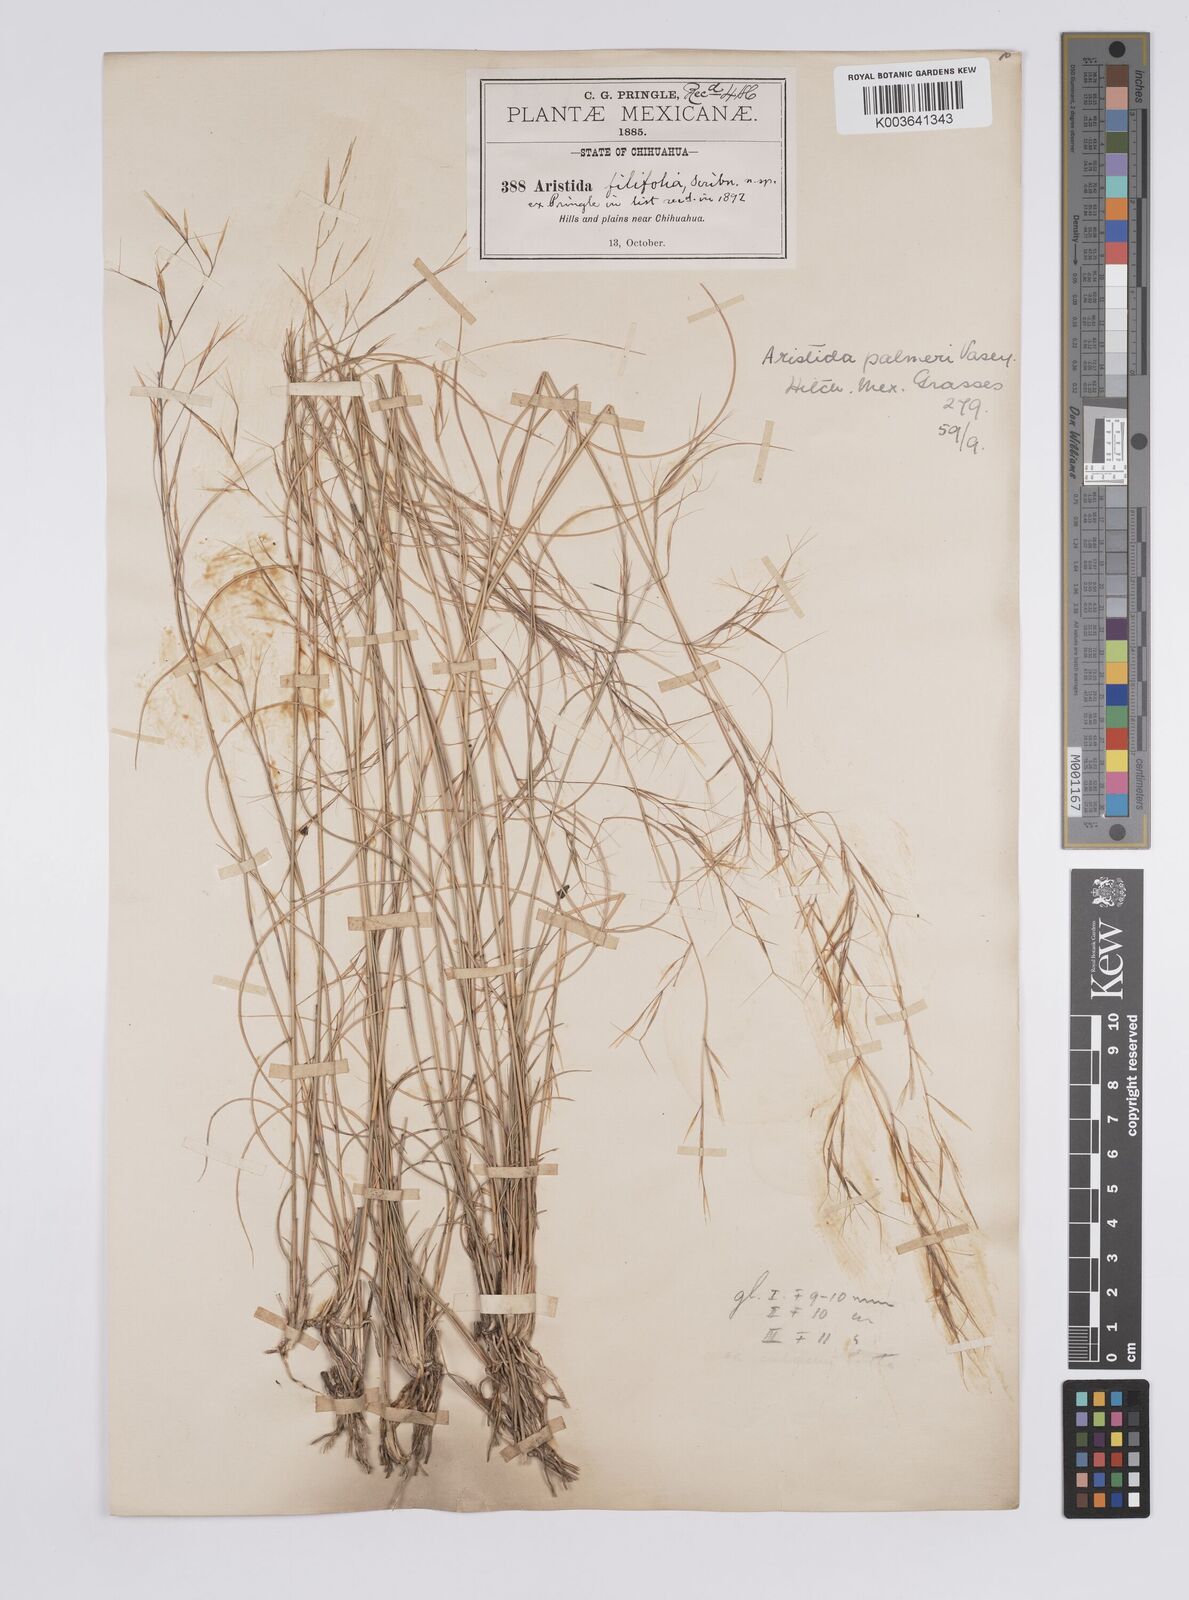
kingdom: Plantae
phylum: Tracheophyta
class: Liliopsida
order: Poales
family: Poaceae
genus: Aristida
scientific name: Aristida divaricata
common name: Poverty grass
